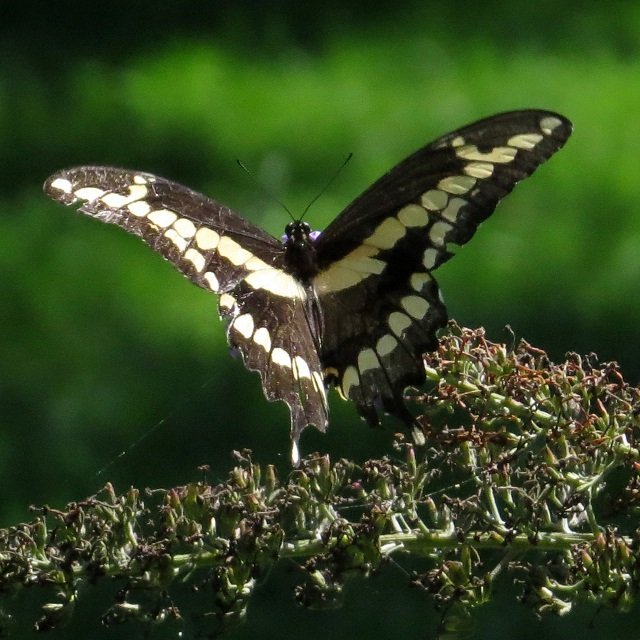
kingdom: Animalia
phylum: Arthropoda
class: Insecta
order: Lepidoptera
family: Papilionidae
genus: Papilio
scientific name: Papilio cresphontes
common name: Eastern Giant Swallowtail
